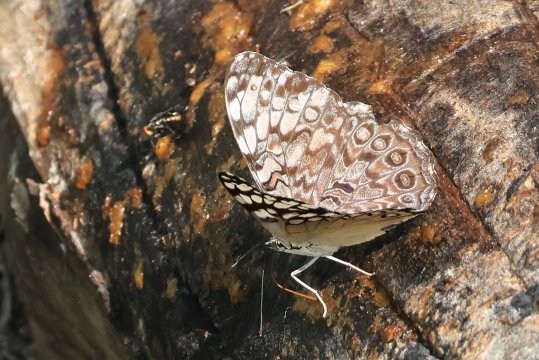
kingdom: Animalia
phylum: Arthropoda
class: Insecta
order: Lepidoptera
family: Nymphalidae
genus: Hamadryas
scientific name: Hamadryas guatemalena
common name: Guatemalan Cracker
